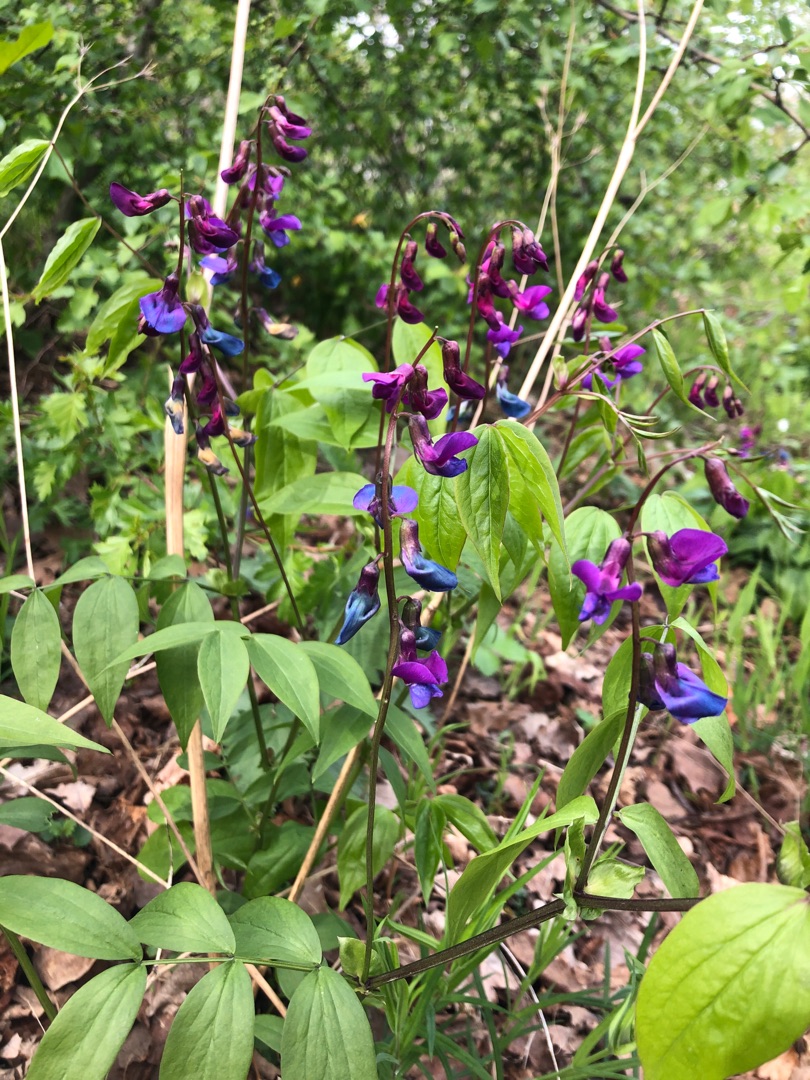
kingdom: Plantae
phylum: Tracheophyta
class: Magnoliopsida
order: Fabales
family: Fabaceae
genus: Lathyrus
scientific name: Lathyrus vernus
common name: Vår-fladbælg
